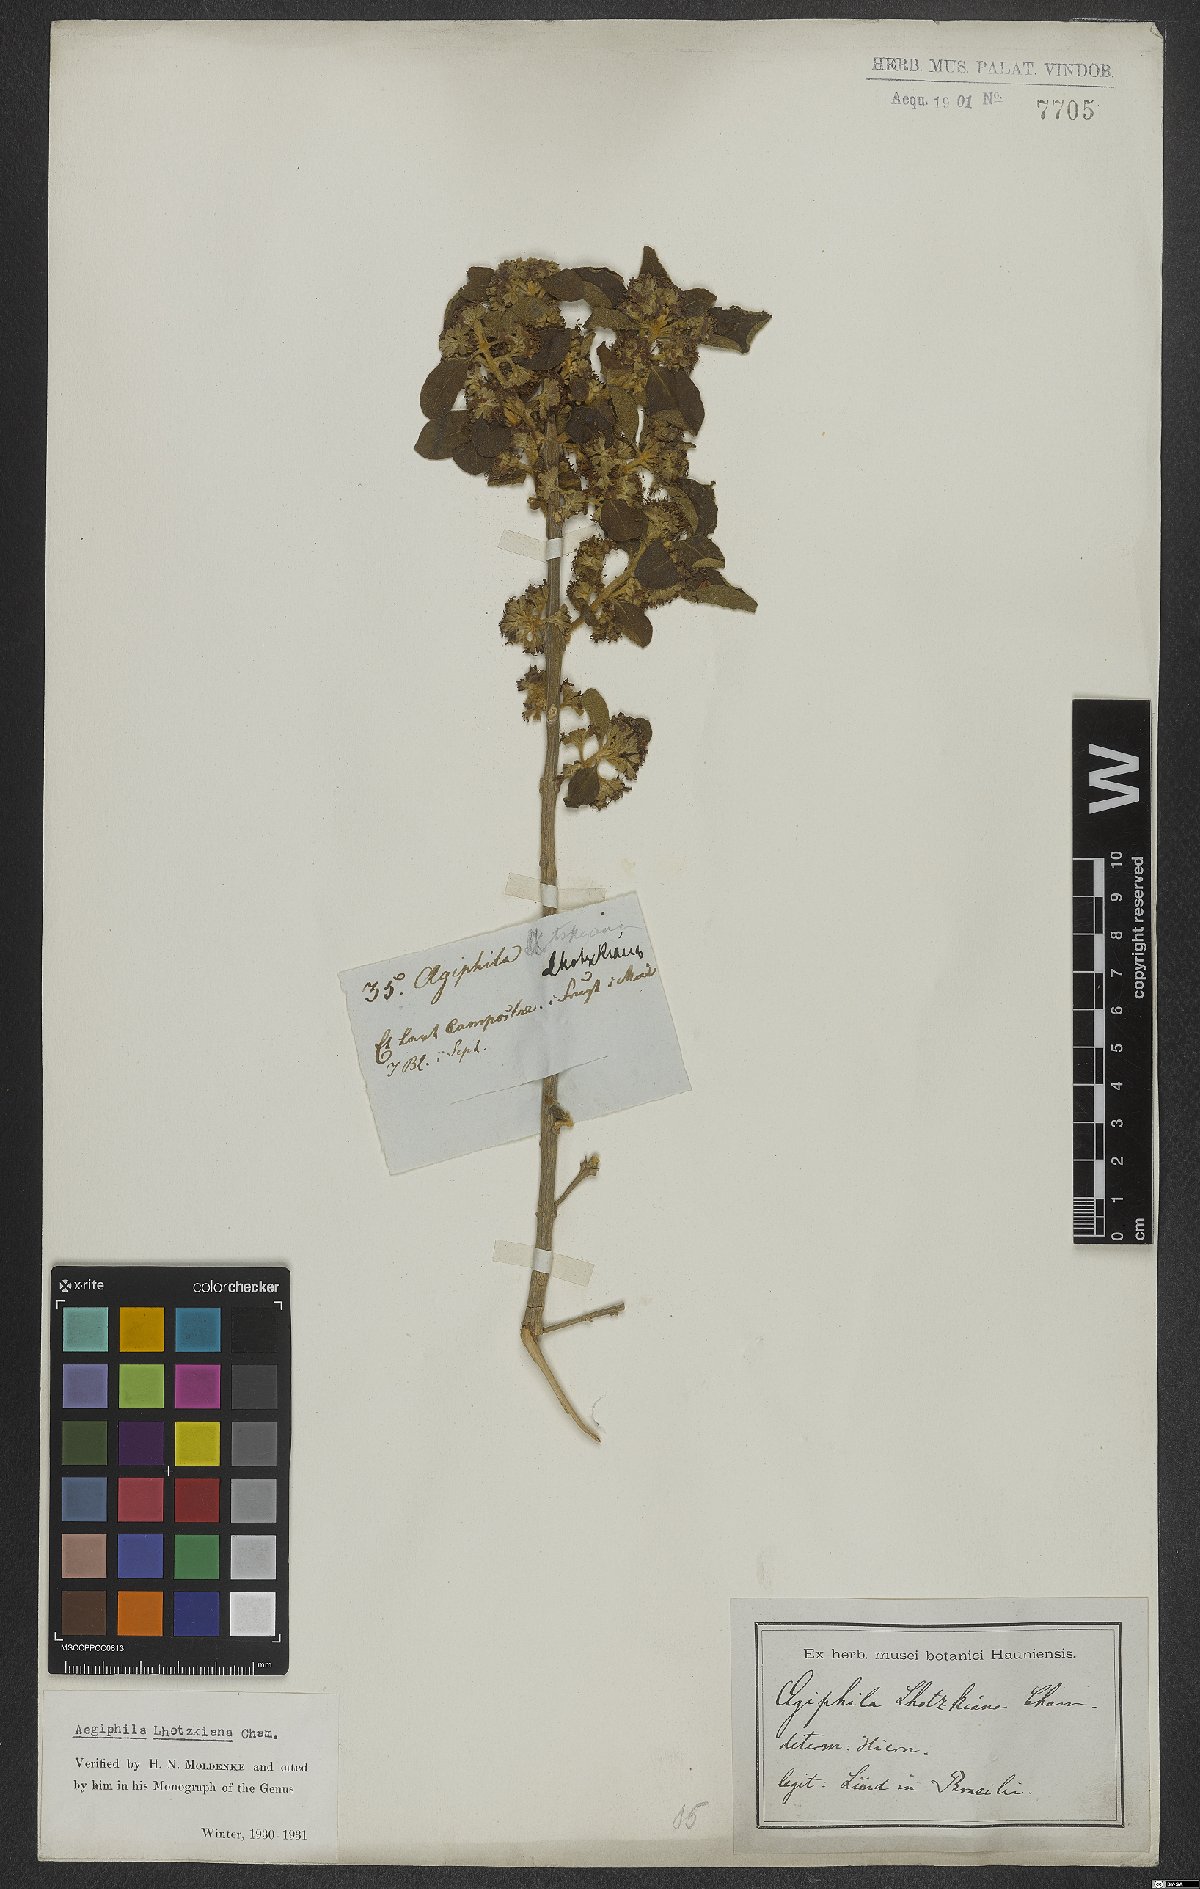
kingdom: Plantae
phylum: Tracheophyta
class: Magnoliopsida
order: Lamiales
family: Lamiaceae
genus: Aegiphila
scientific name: Aegiphila lhotskiana
